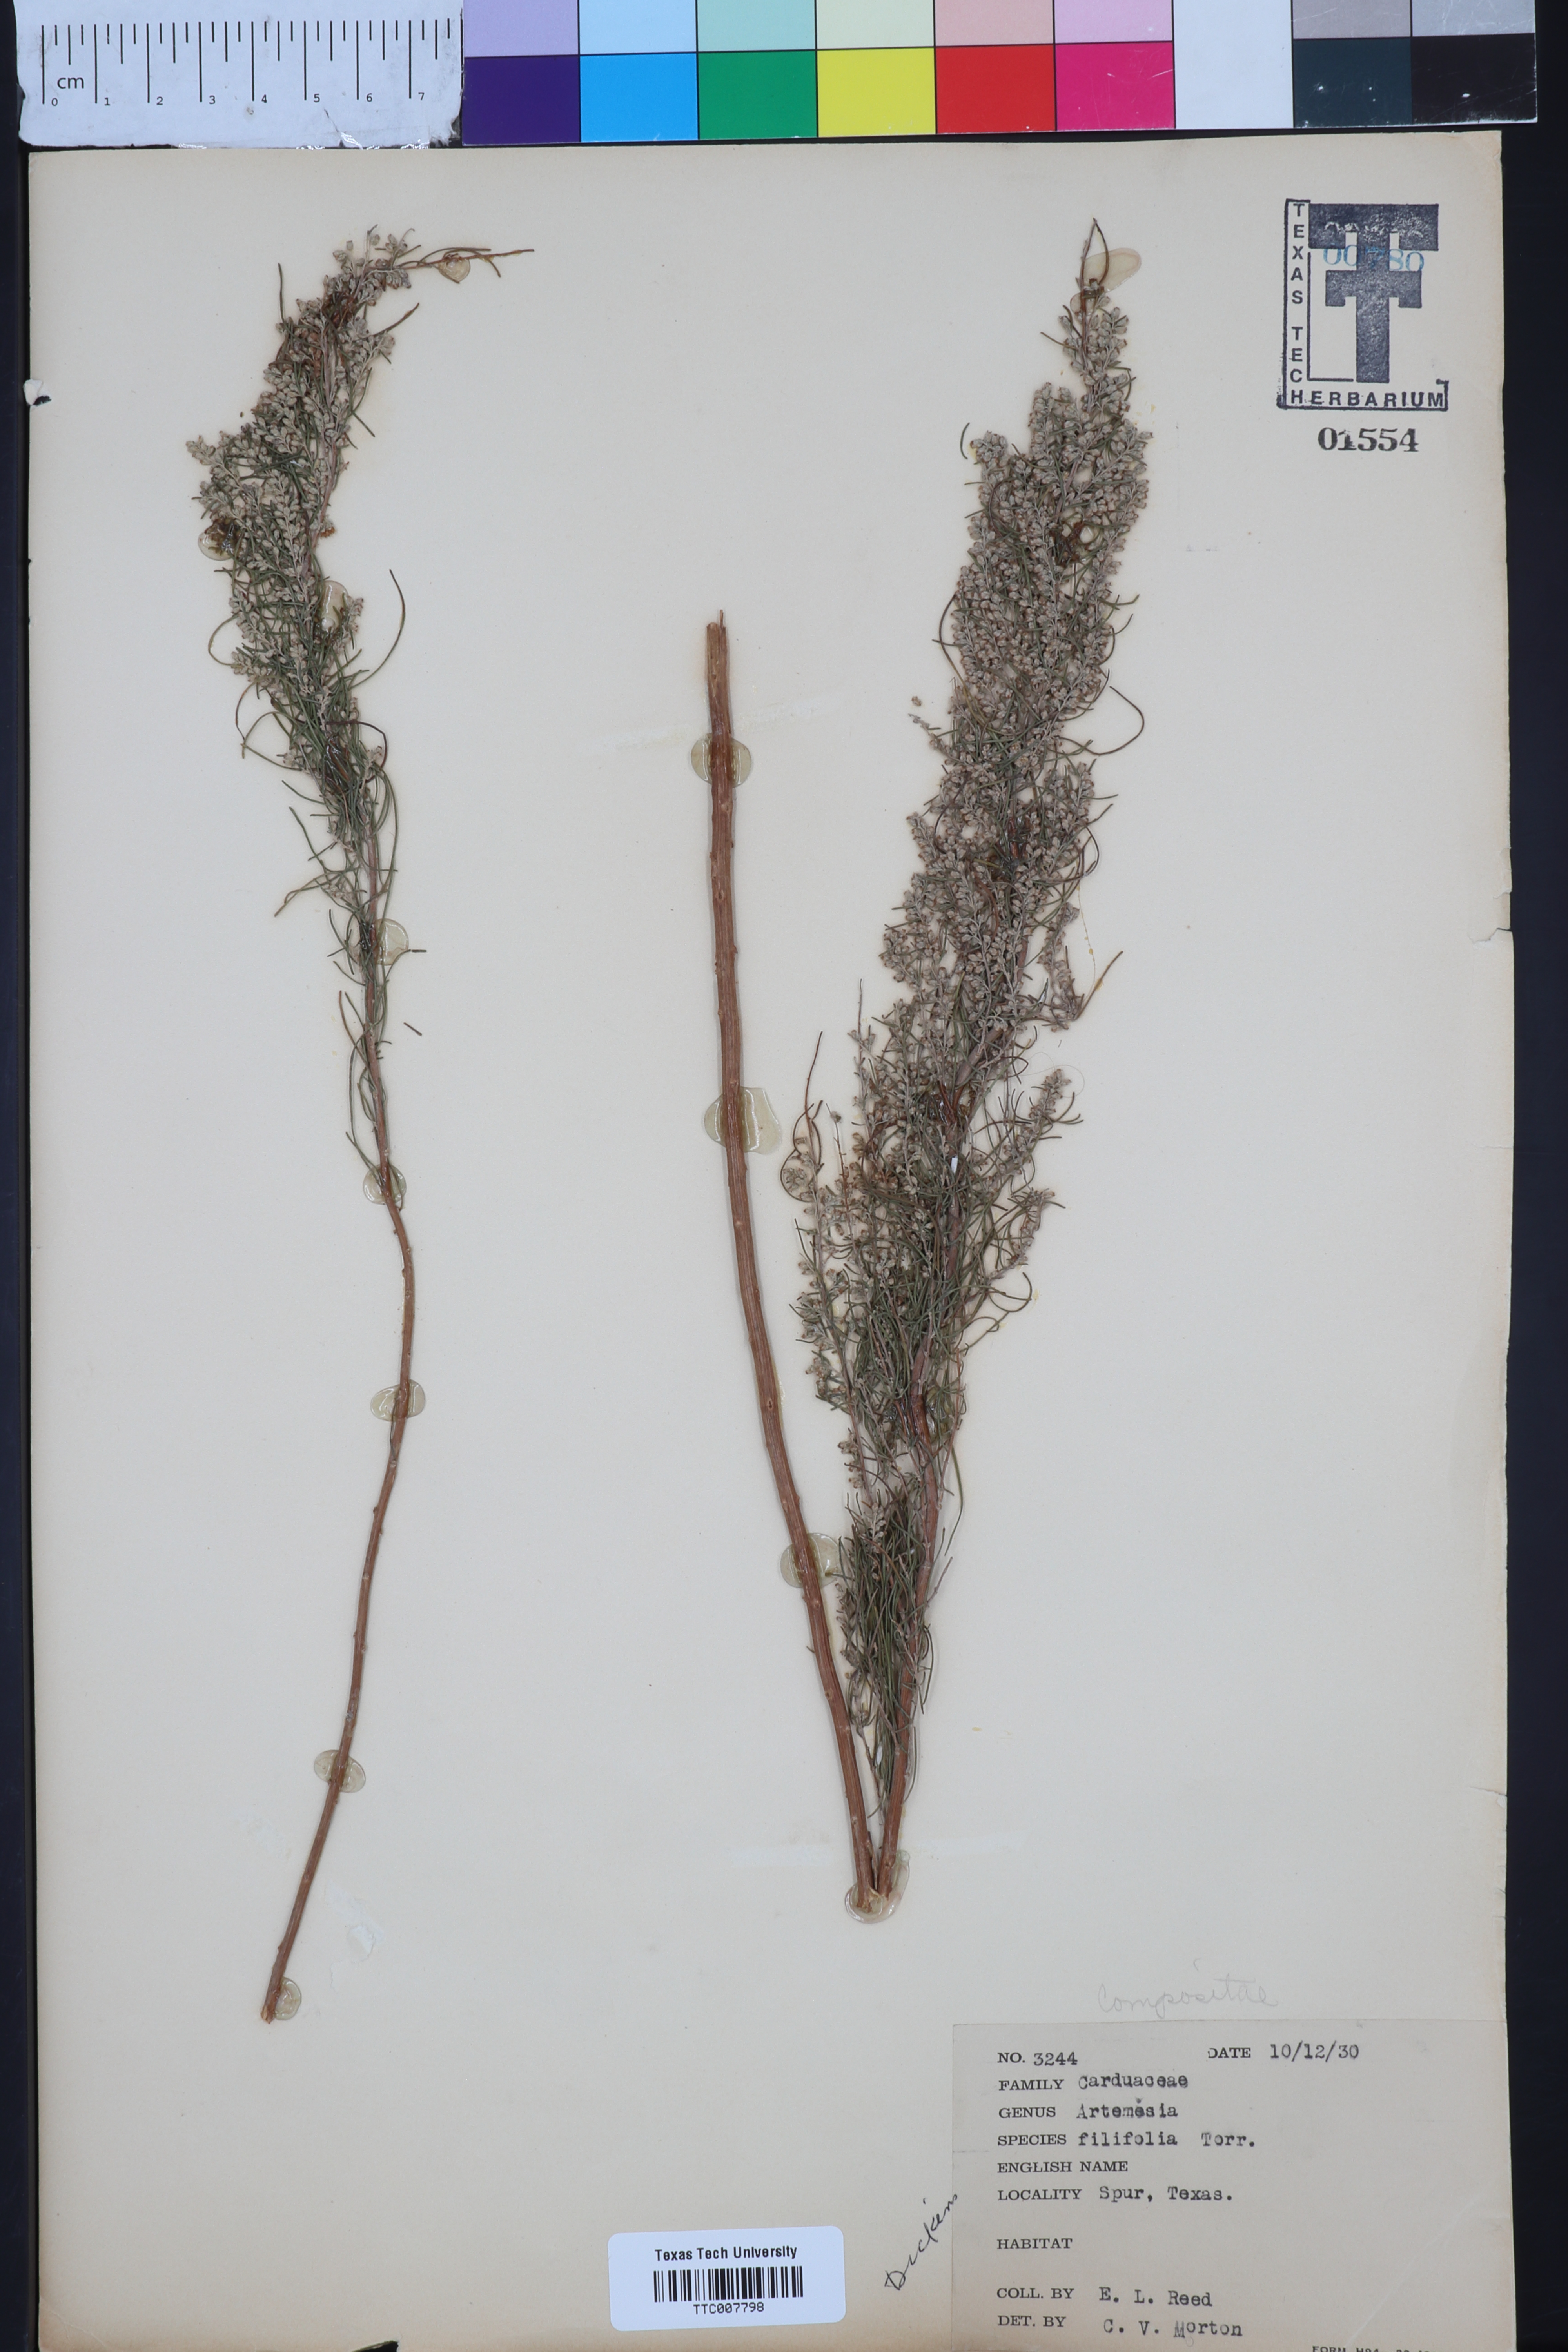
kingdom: Plantae
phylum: Tracheophyta
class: Magnoliopsida
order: Asterales
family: Asteraceae
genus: Artemisia
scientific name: Artemisia filifolia
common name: Sand-sage
